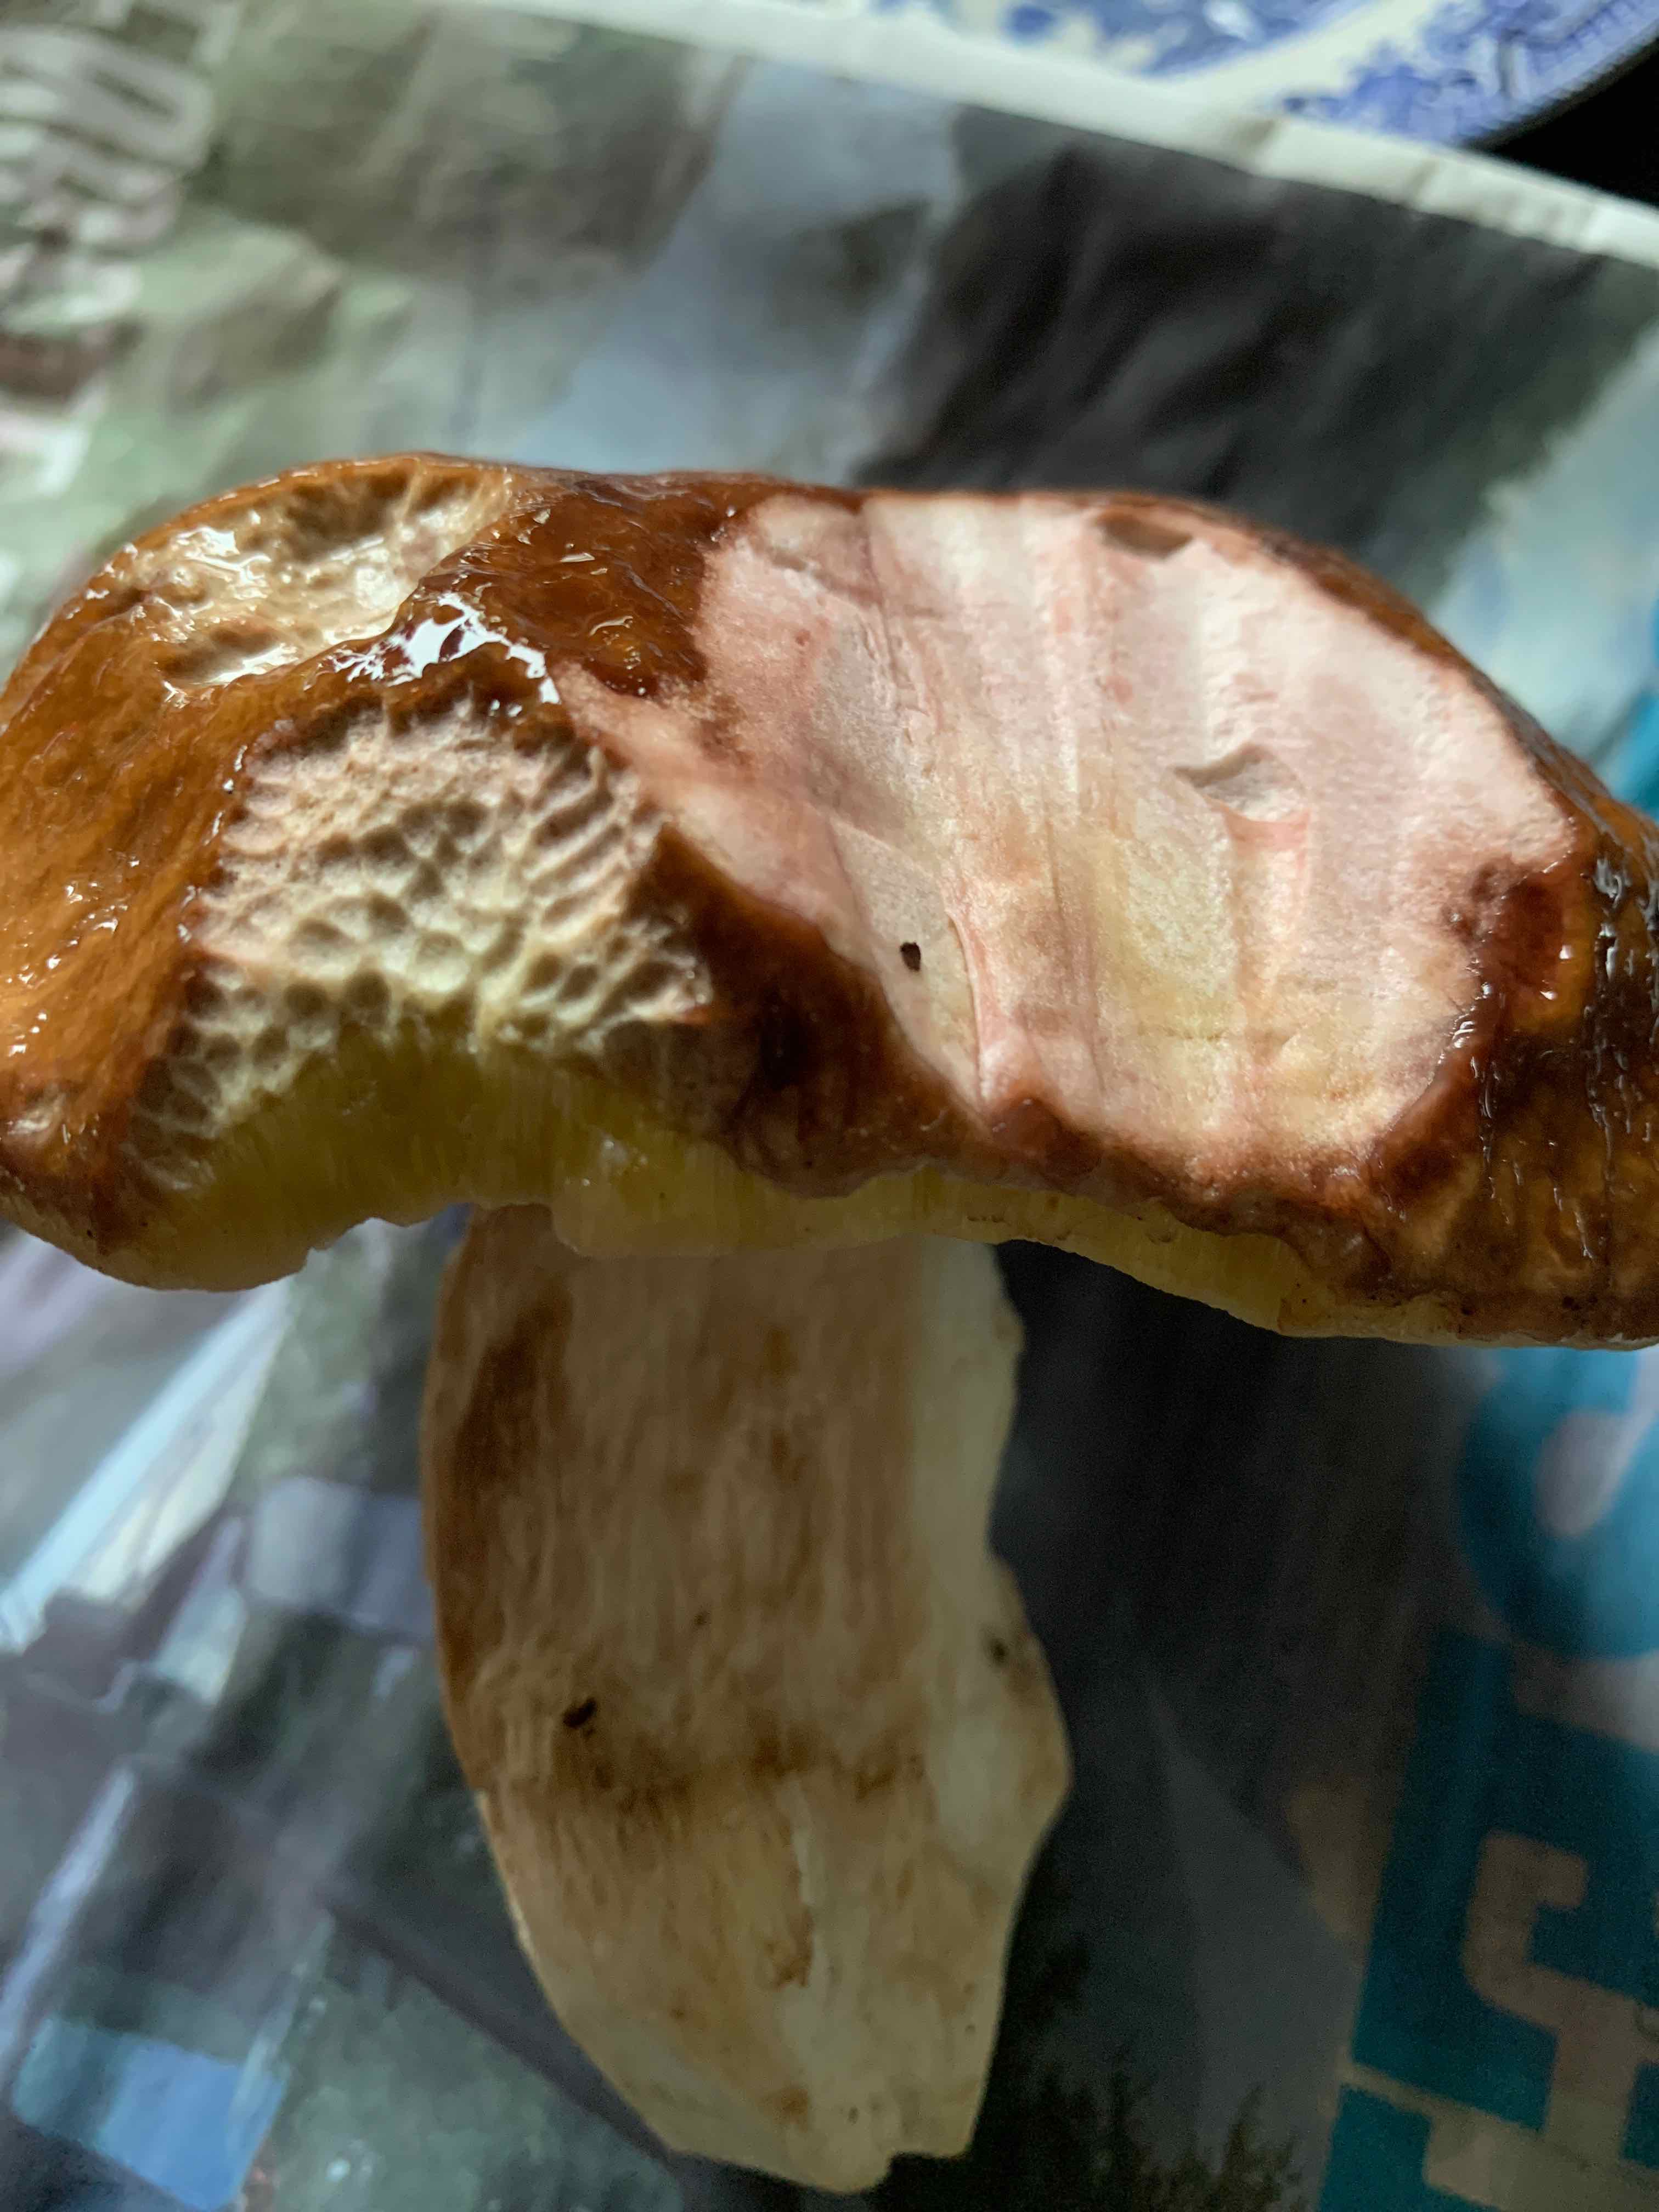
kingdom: Fungi
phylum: Basidiomycota
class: Agaricomycetes
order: Boletales
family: Boletaceae
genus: Boletus
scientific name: Boletus edulis
